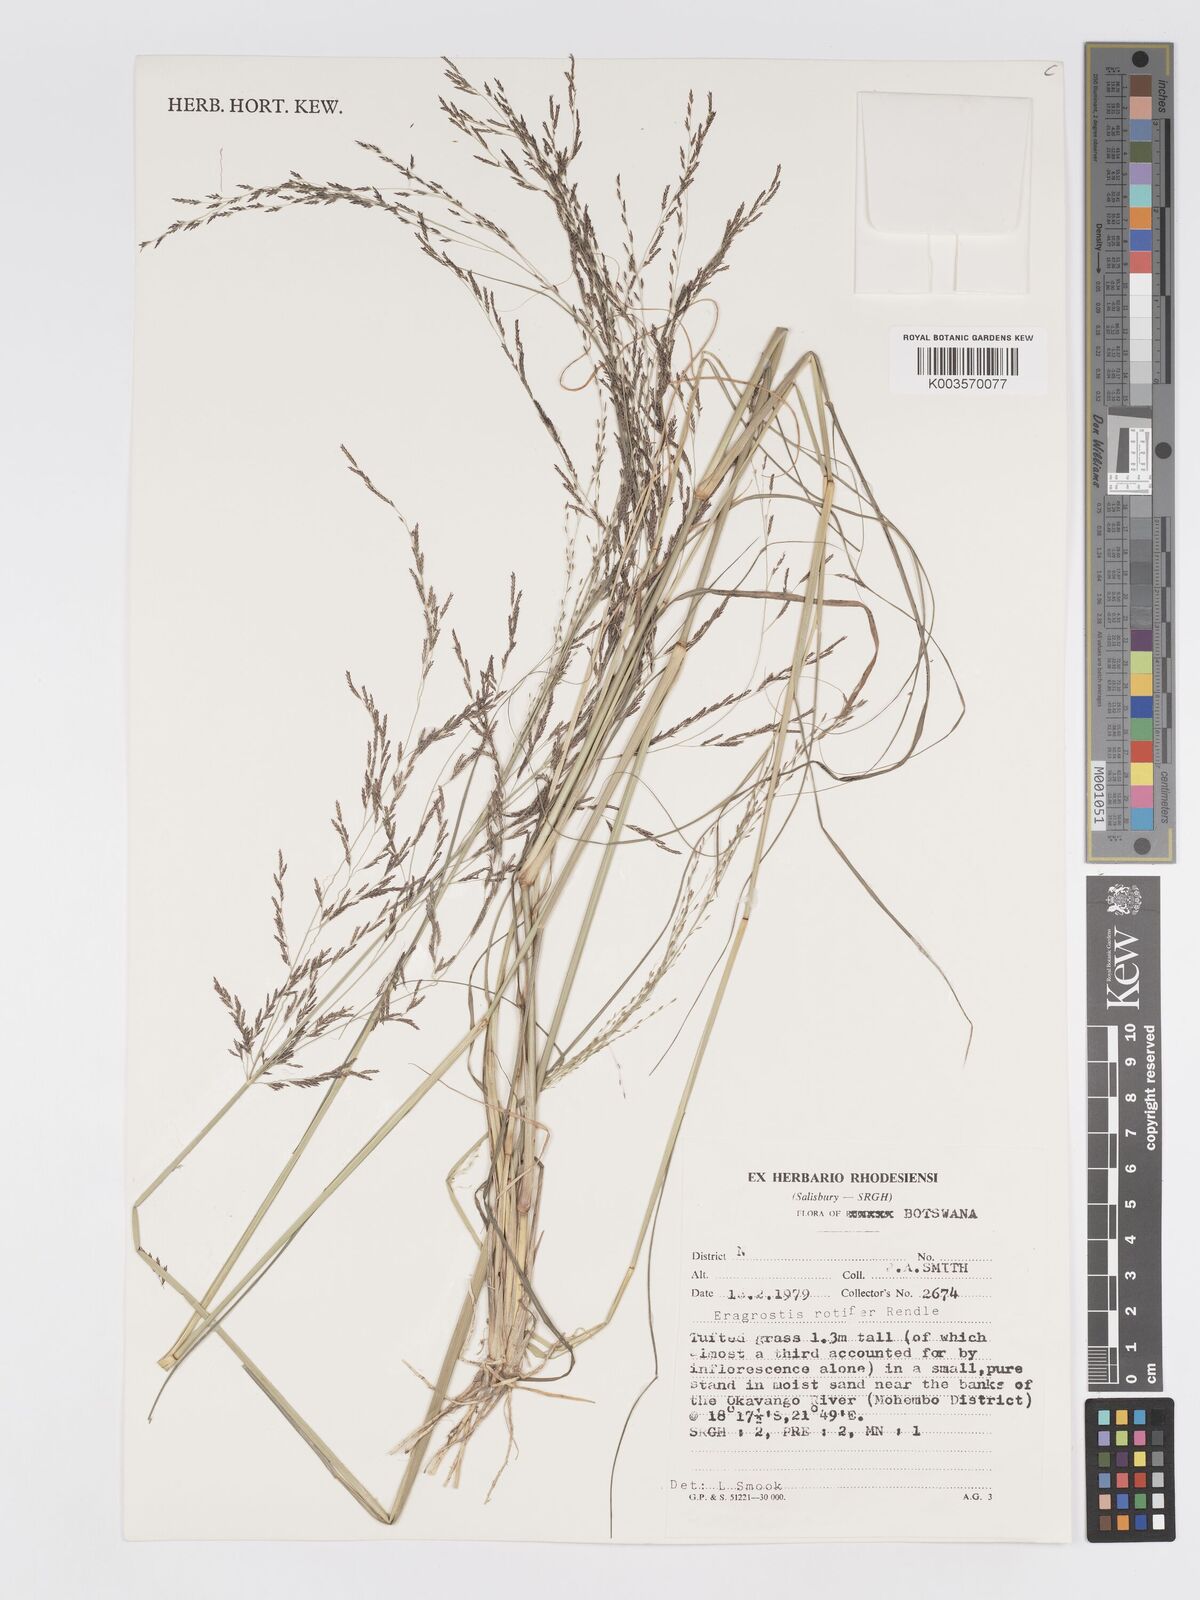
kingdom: Plantae
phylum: Tracheophyta
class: Liliopsida
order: Poales
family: Poaceae
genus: Eragrostis
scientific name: Eragrostis rotifer
